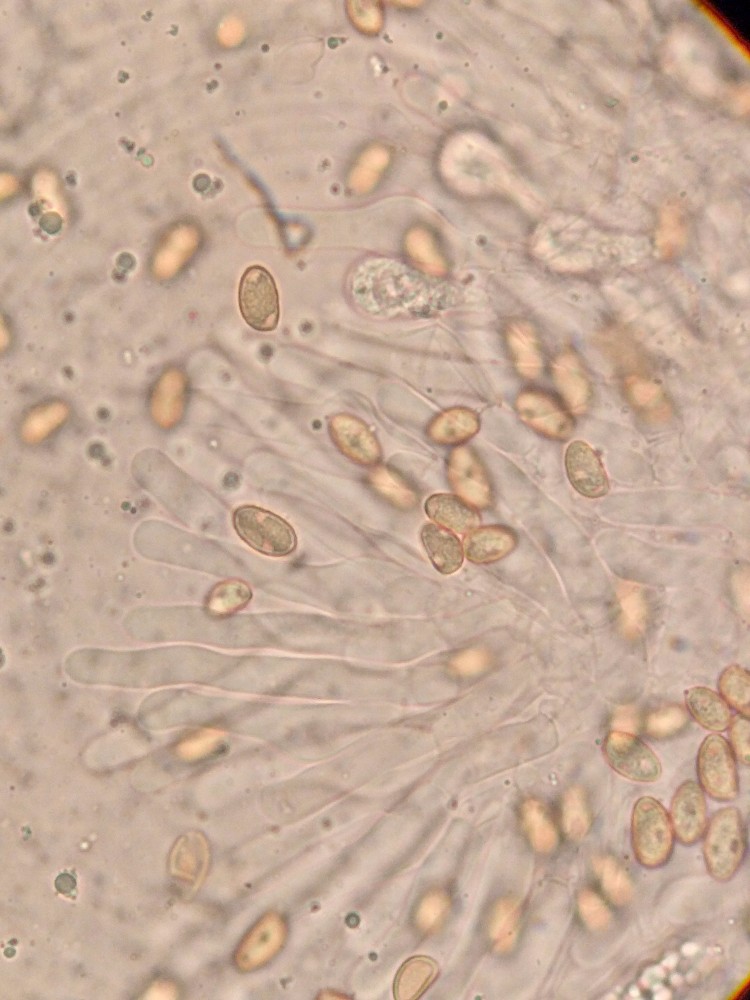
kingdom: Fungi
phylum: Basidiomycota
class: Agaricomycetes
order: Agaricales
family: Hymenogastraceae
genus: Hebeloma
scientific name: Hebeloma mesophaeum
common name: lerbrun tåreblad
